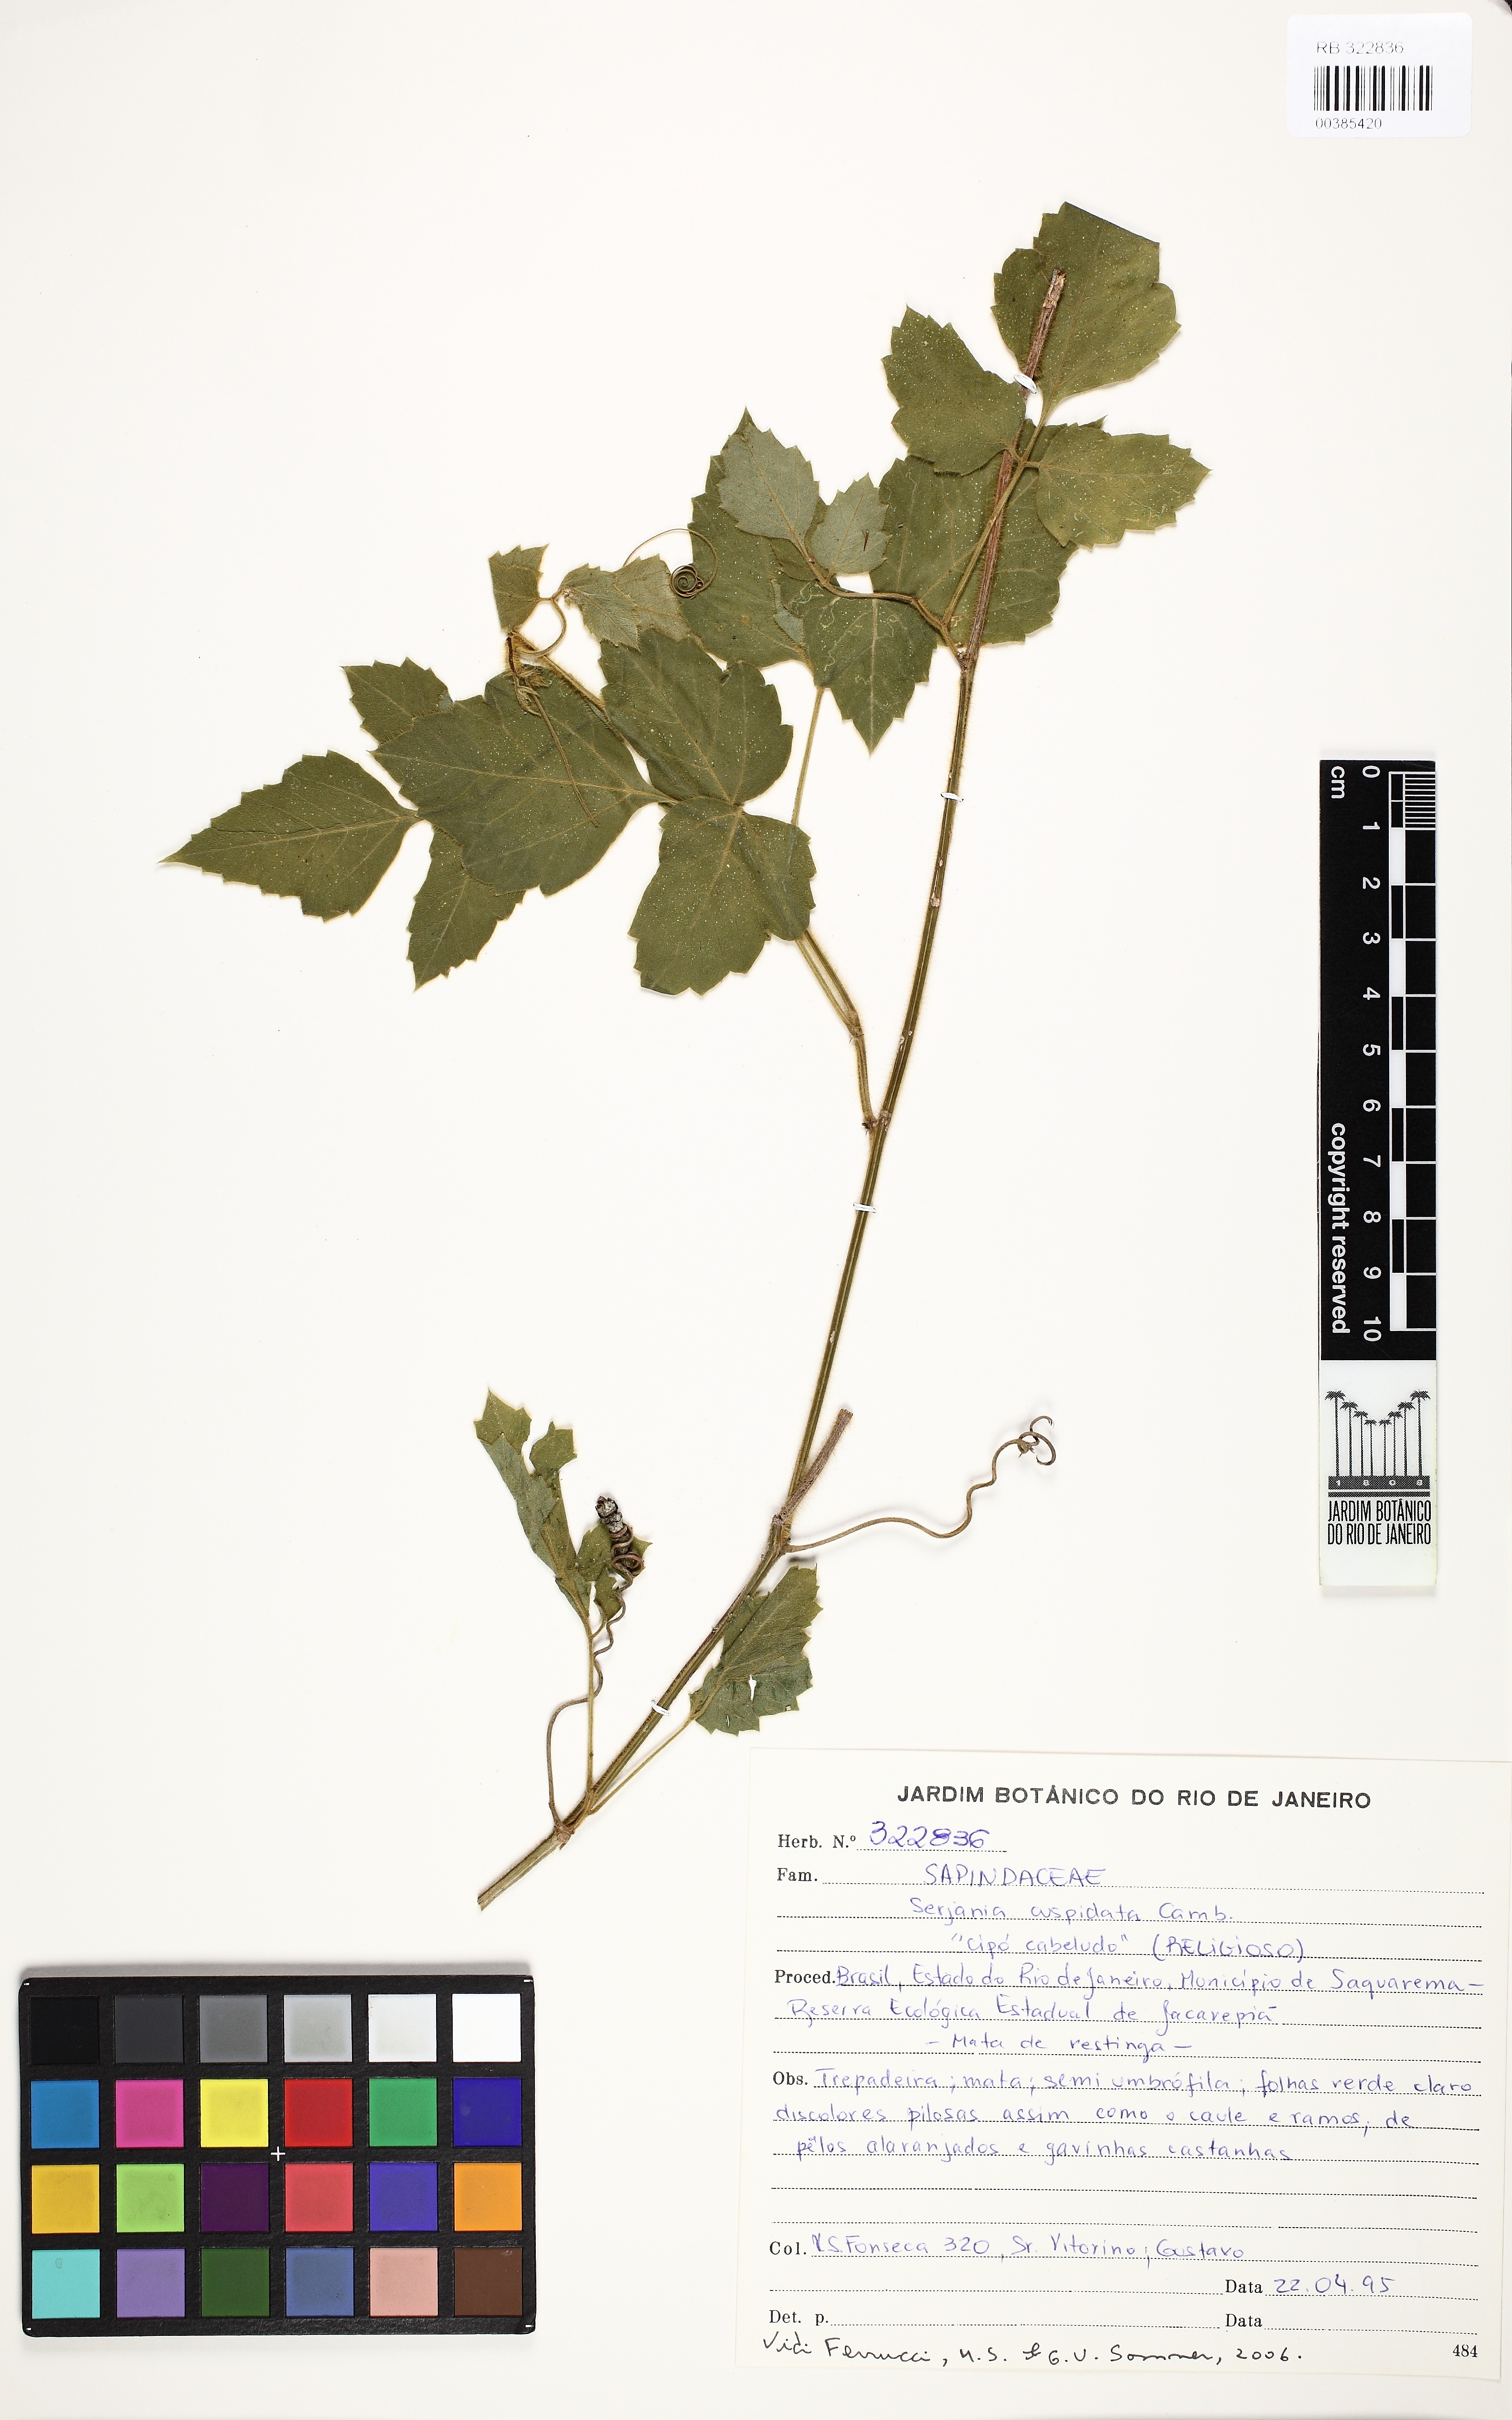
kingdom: Plantae
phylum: Tracheophyta
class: Magnoliopsida
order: Sapindales
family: Sapindaceae
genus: Serjania
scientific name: Serjania ferruginea
